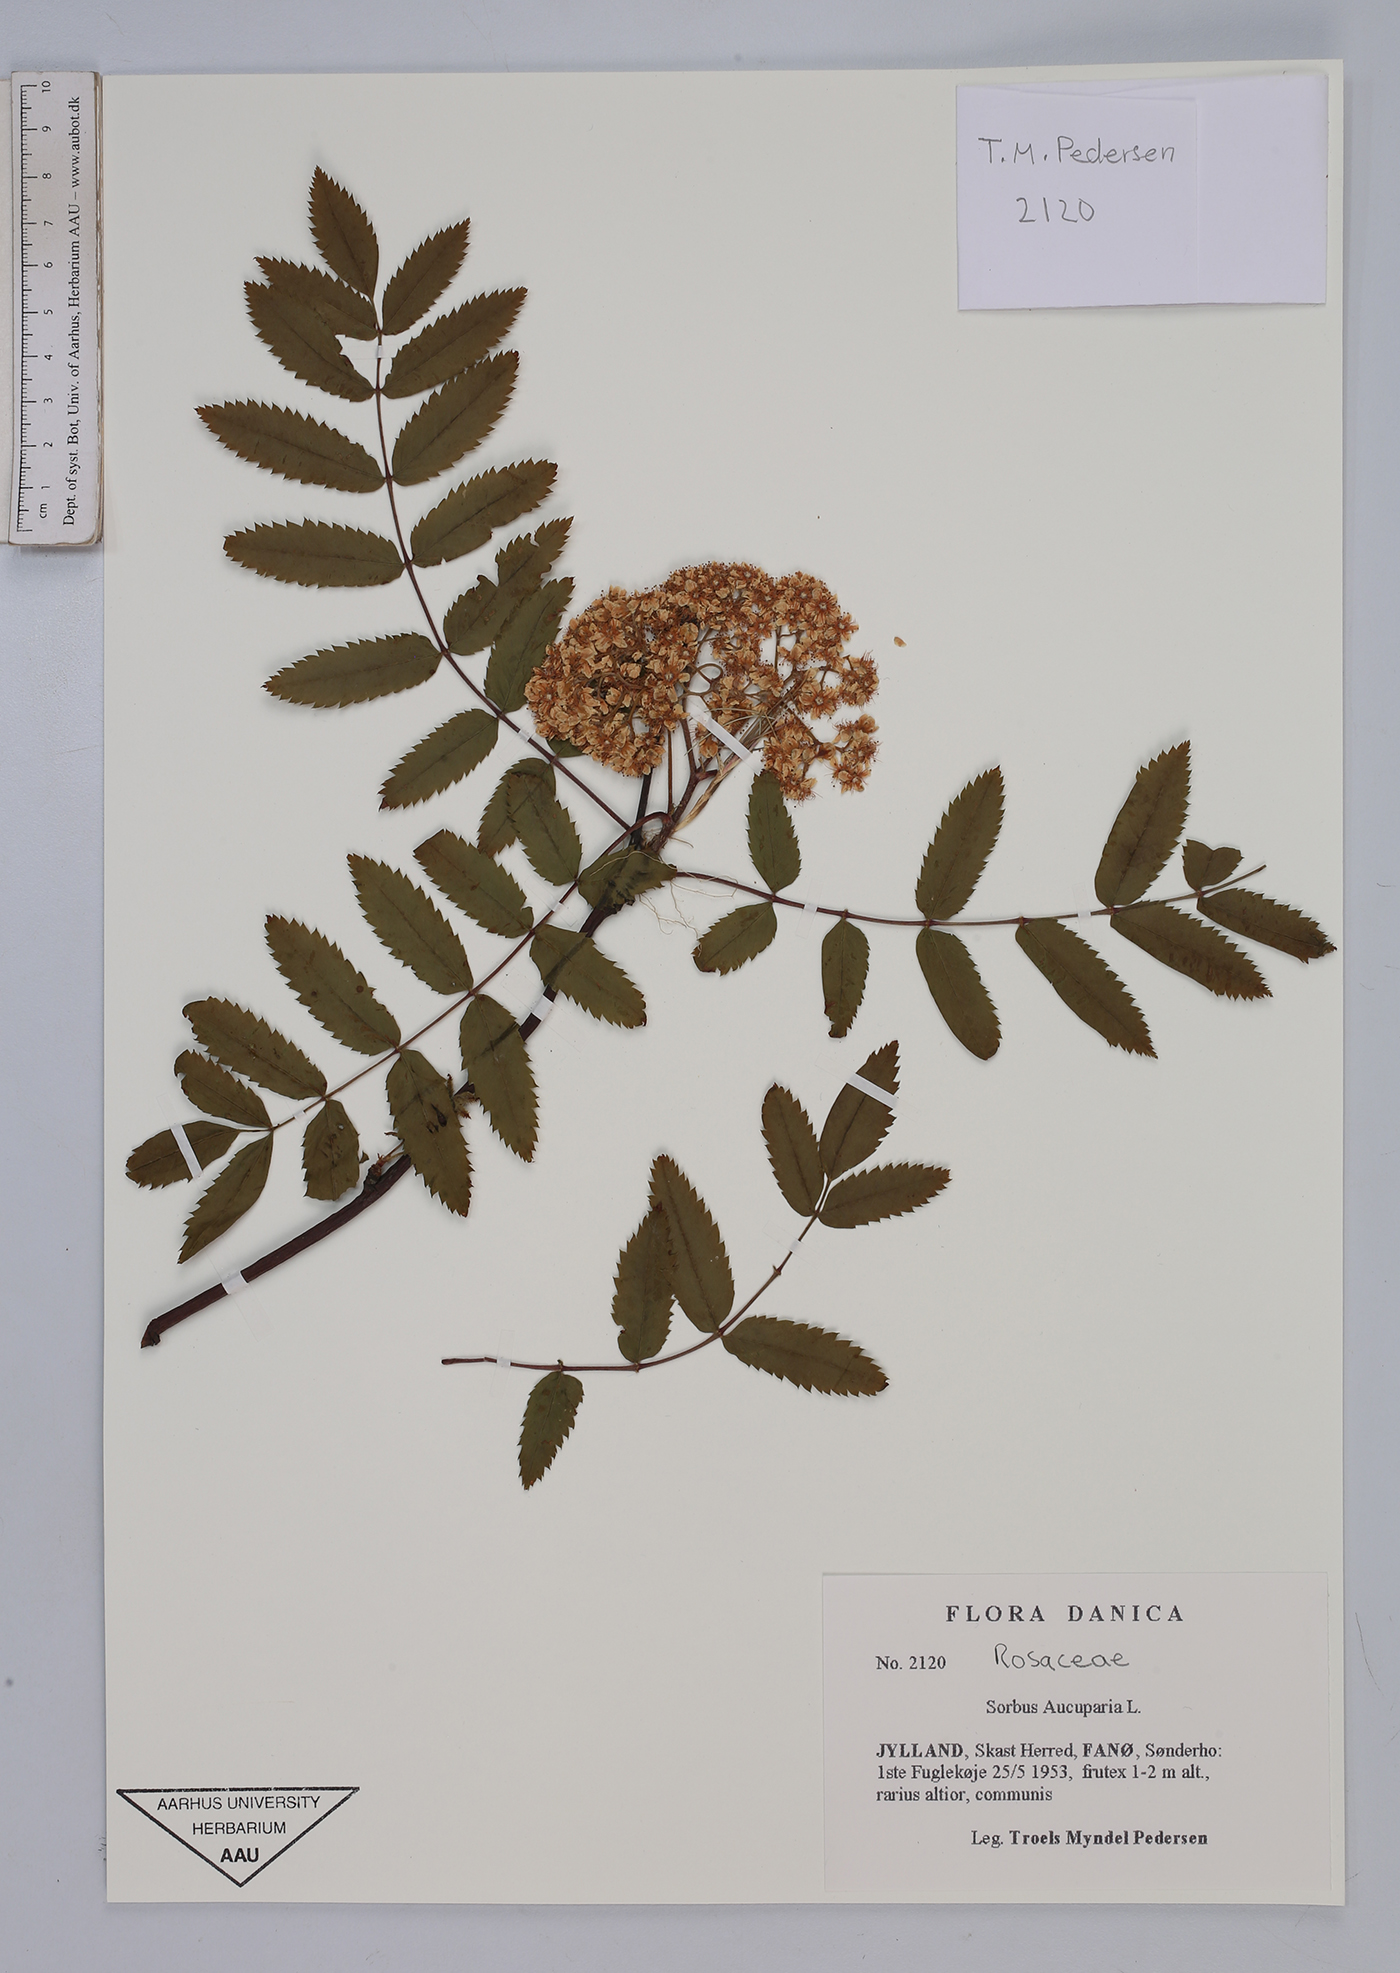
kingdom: Plantae
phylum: Tracheophyta
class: Magnoliopsida
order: Rosales
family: Rosaceae
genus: Sorbus
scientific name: Sorbus aucuparia
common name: Rowan
